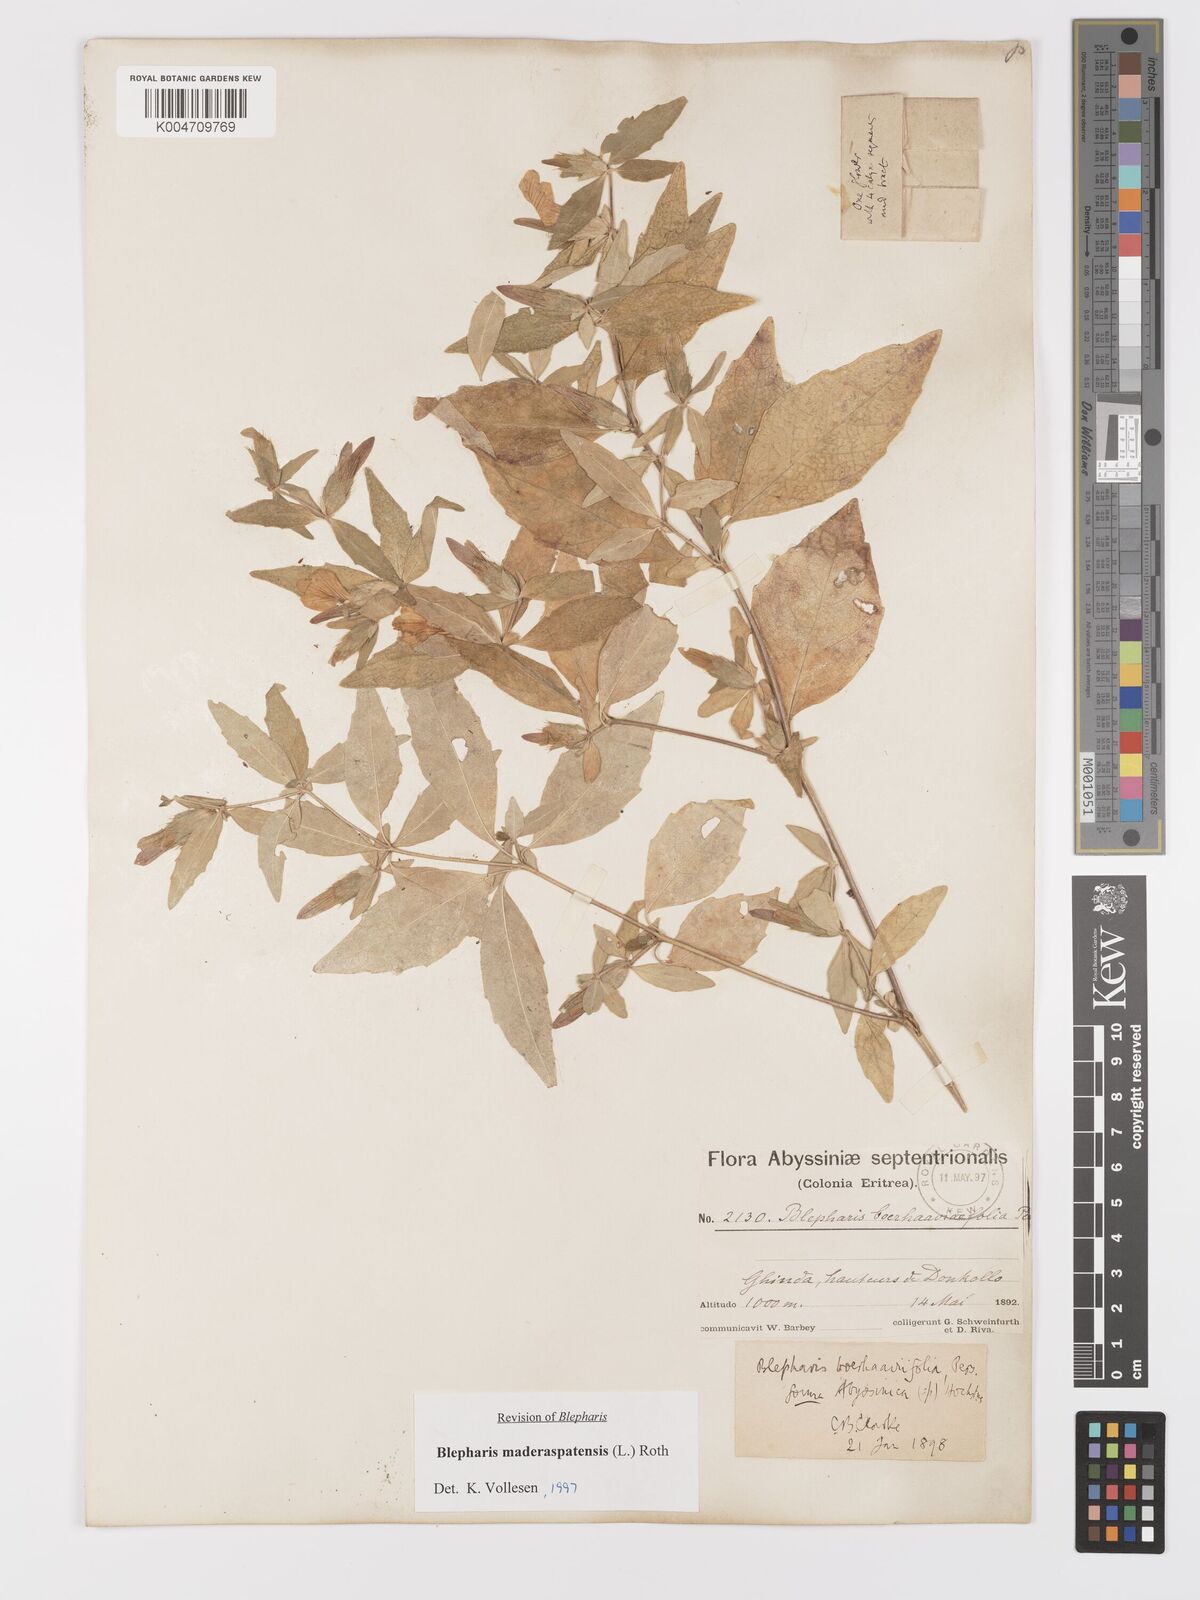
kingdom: Plantae
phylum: Tracheophyta
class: Magnoliopsida
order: Lamiales
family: Acanthaceae
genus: Blepharis
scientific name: Blepharis maderaspatensis
